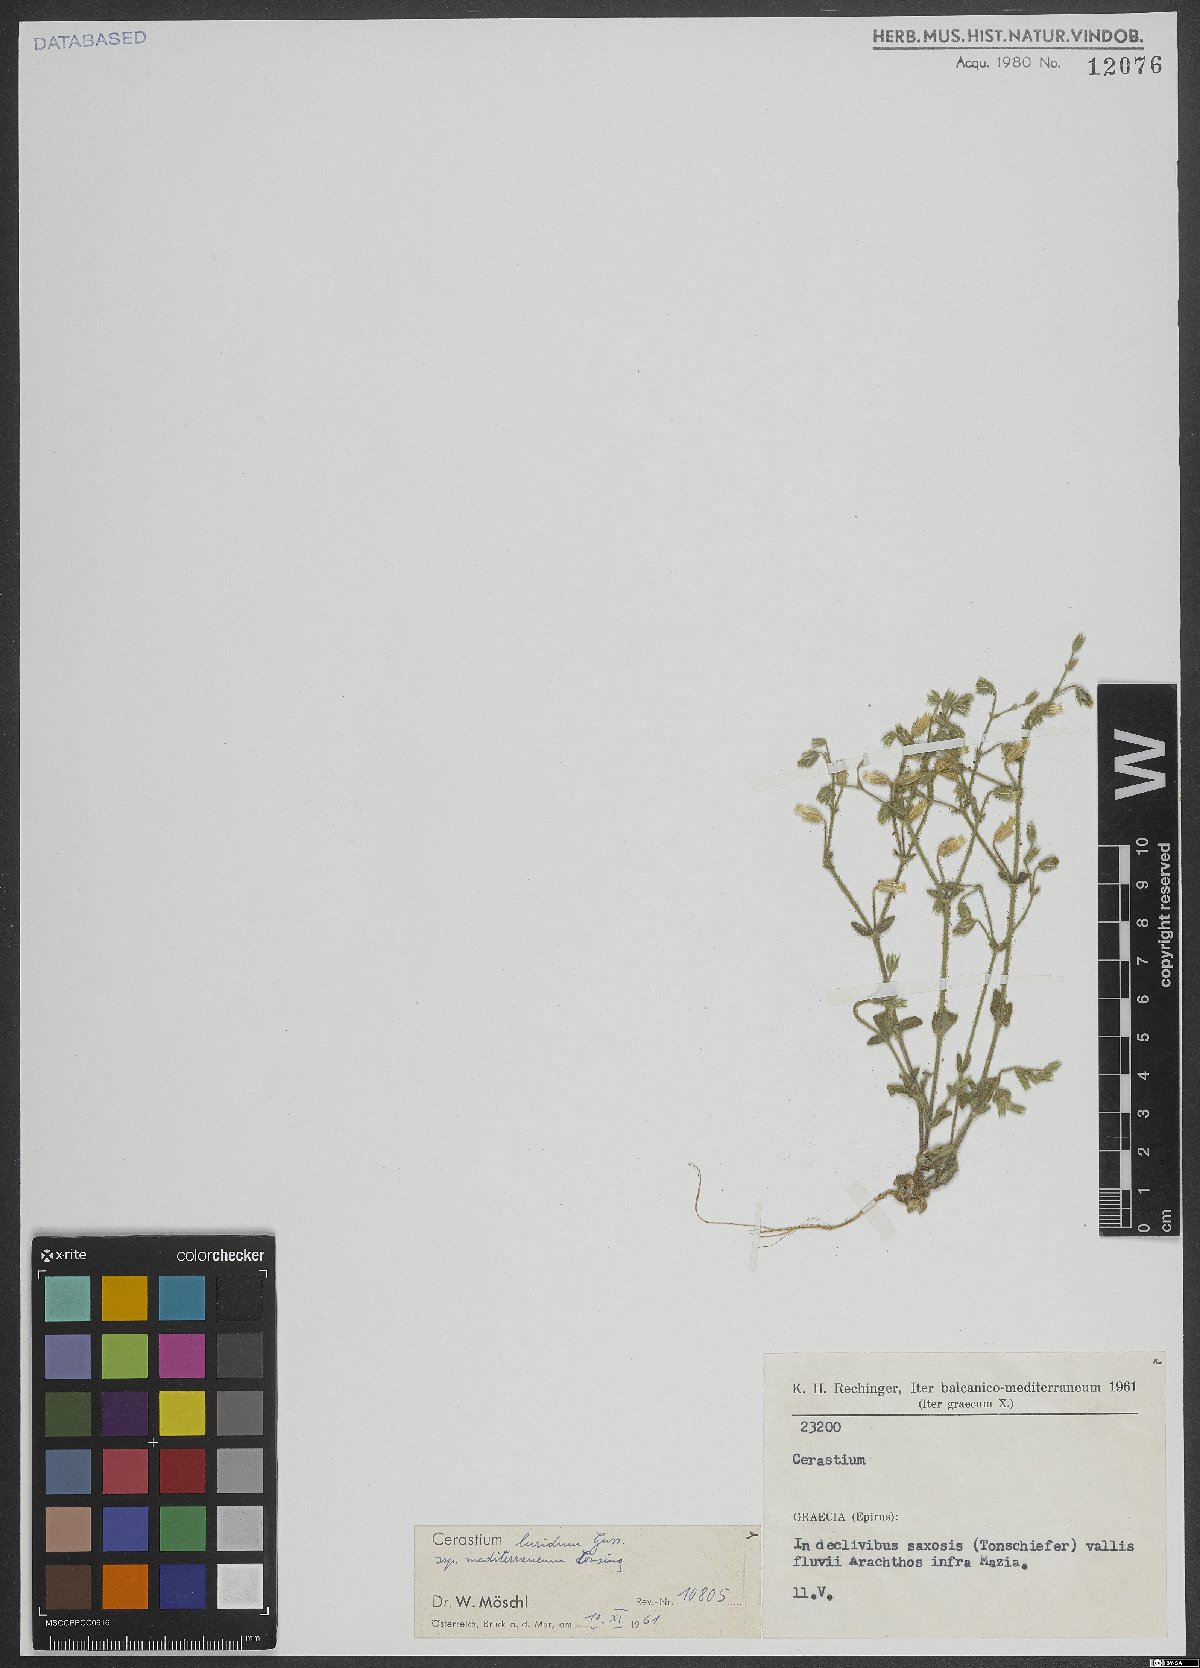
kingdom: Plantae
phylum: Tracheophyta
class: Magnoliopsida
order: Caryophyllales
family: Caryophyllaceae
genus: Cerastium
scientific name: Cerastium brachypetalum
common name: Grey mouse-ear
